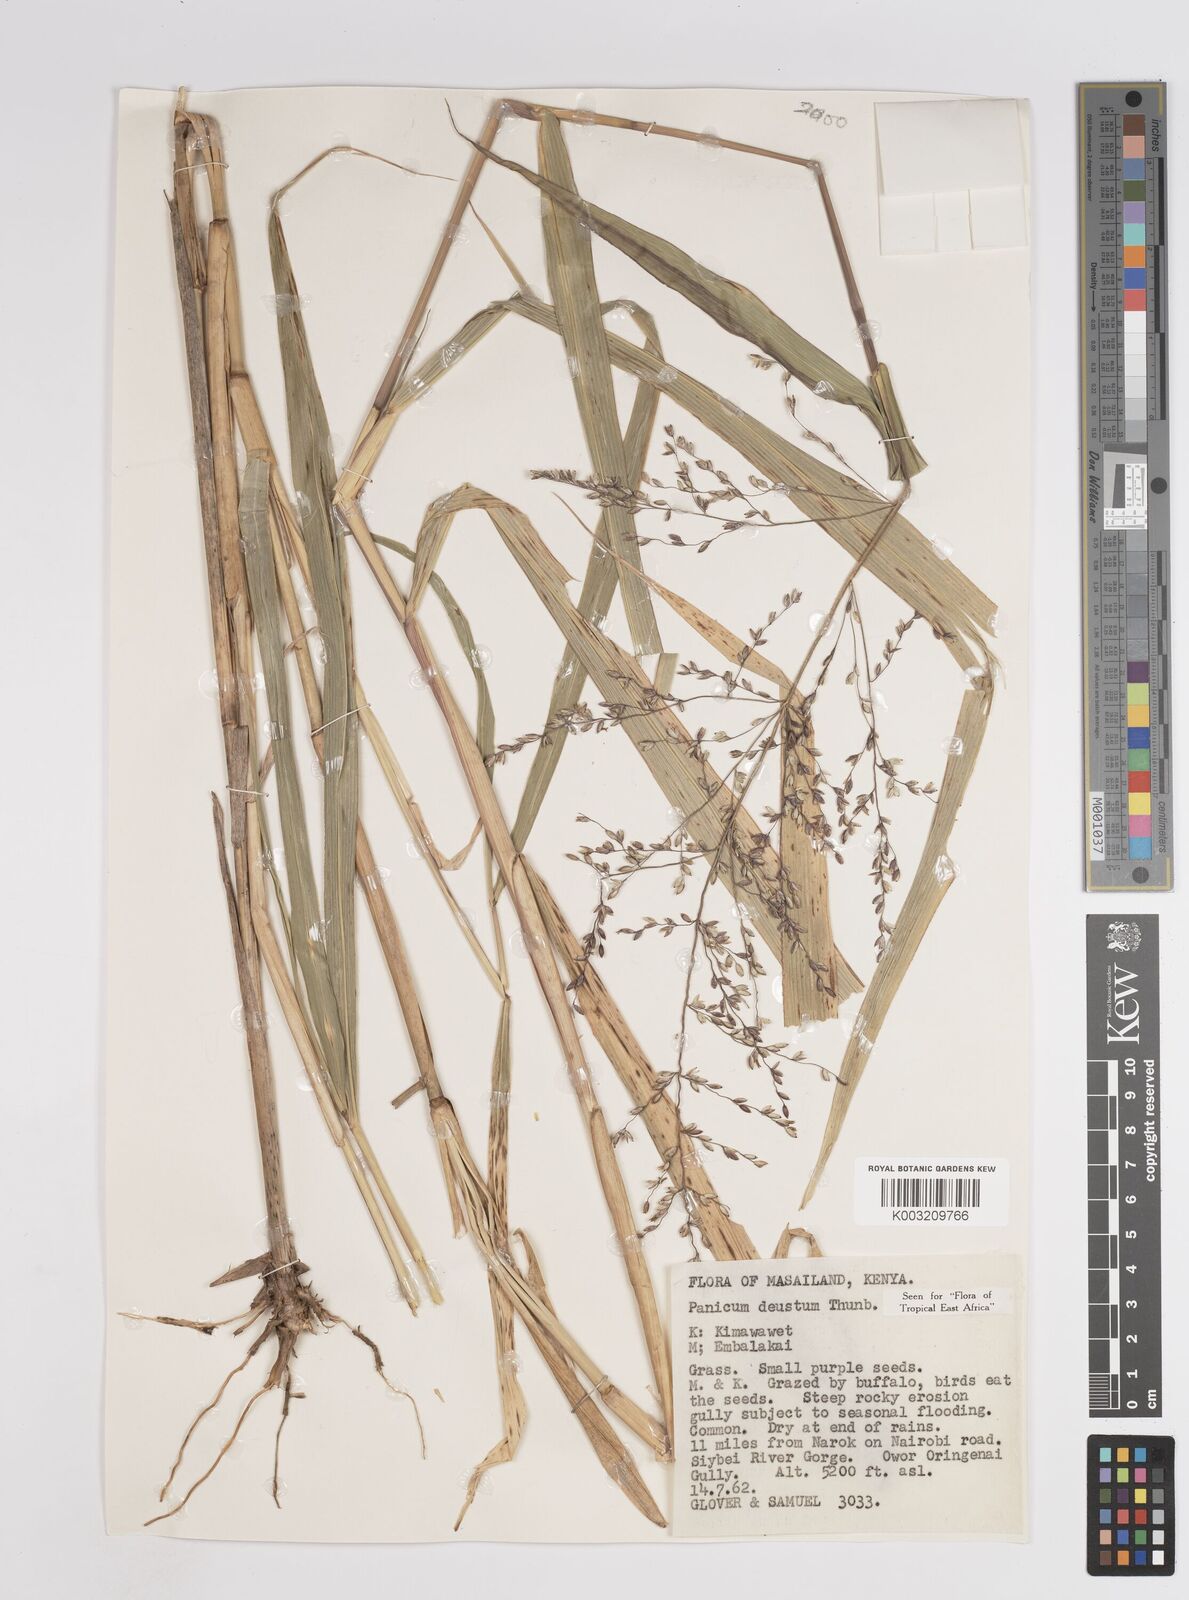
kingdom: Plantae
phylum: Tracheophyta
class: Liliopsida
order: Poales
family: Poaceae
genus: Panicum
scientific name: Panicum
